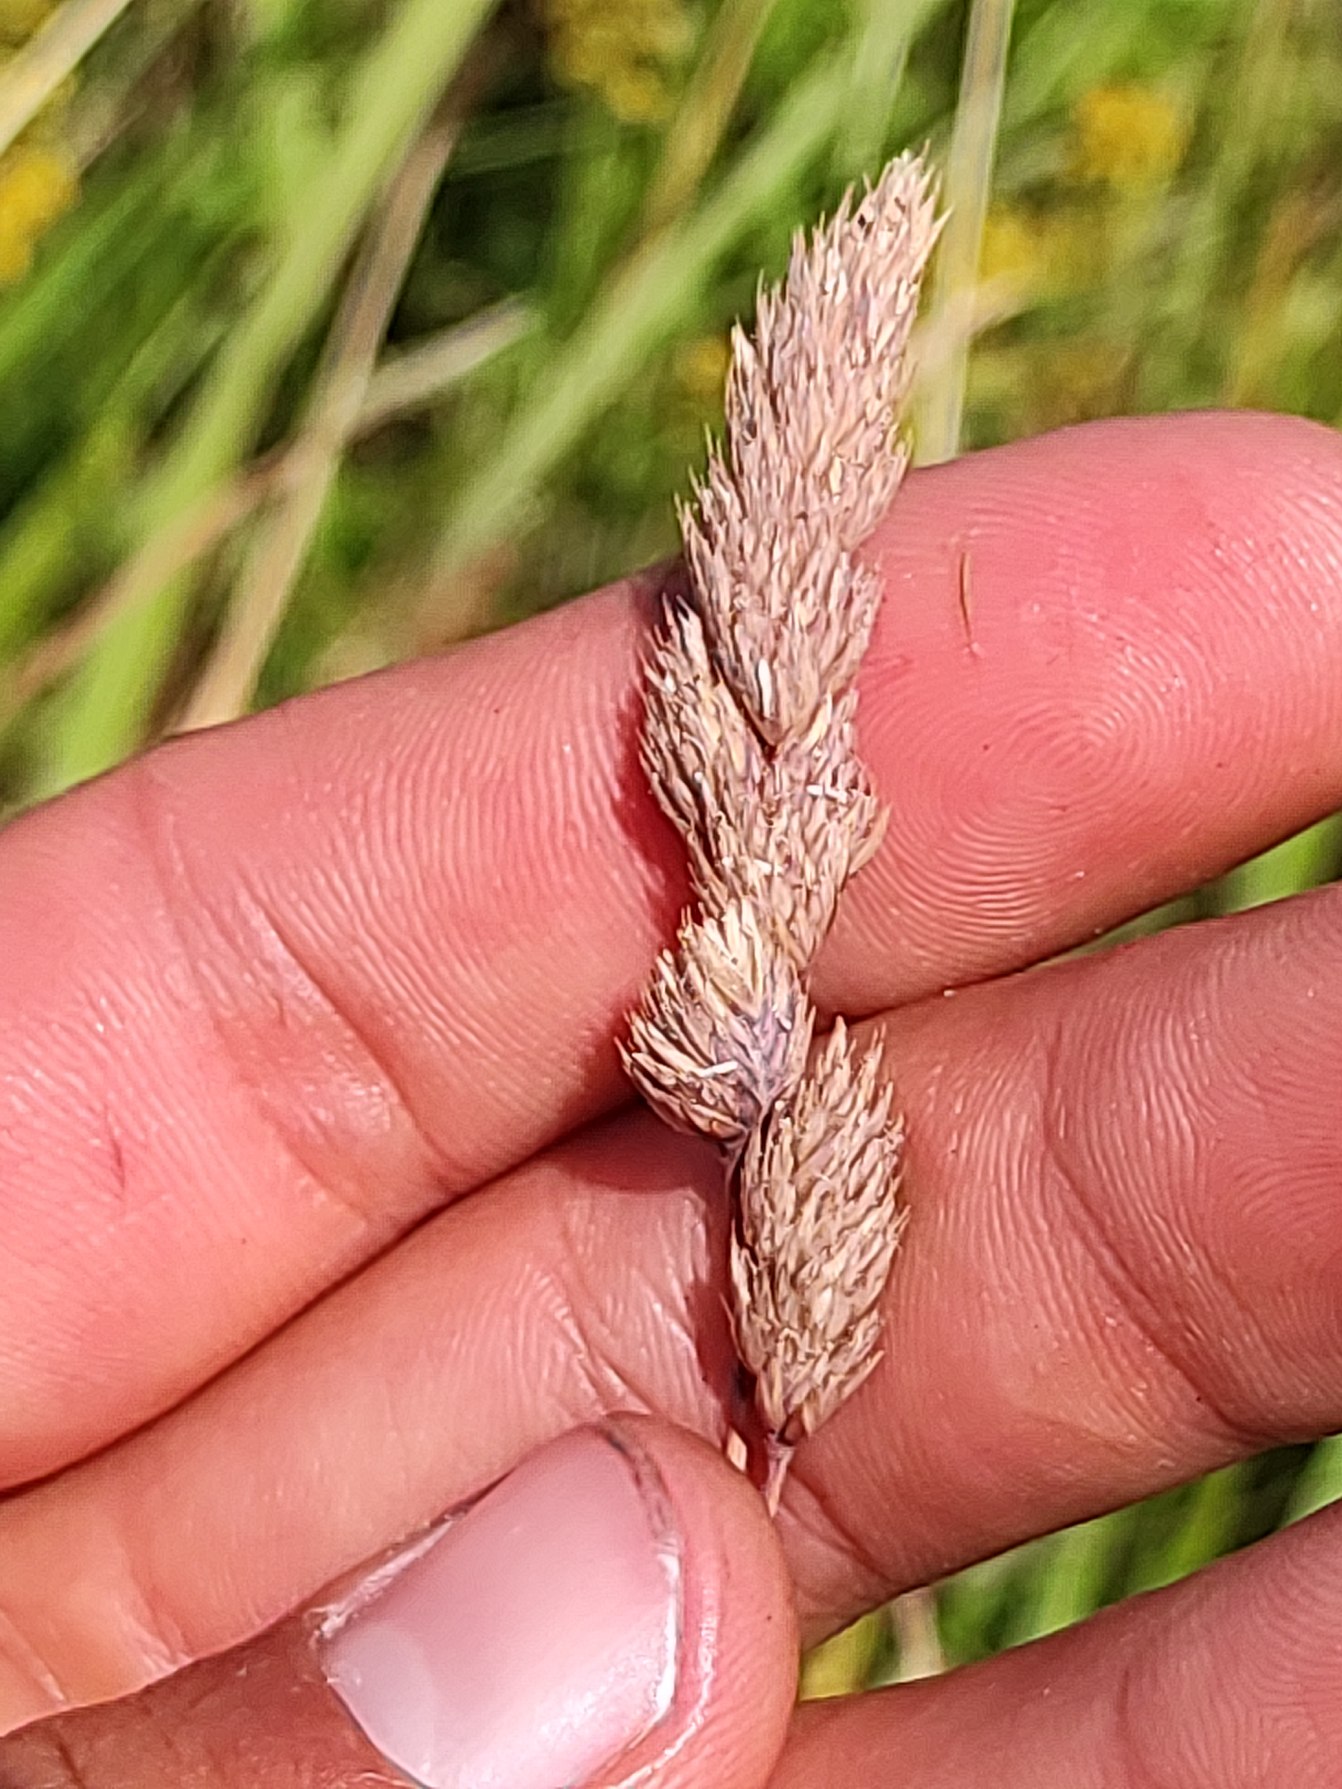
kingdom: Plantae
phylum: Tracheophyta
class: Liliopsida
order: Poales
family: Poaceae
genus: Dactylis
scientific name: Dactylis glomerata
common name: Almindelig hundegræs
